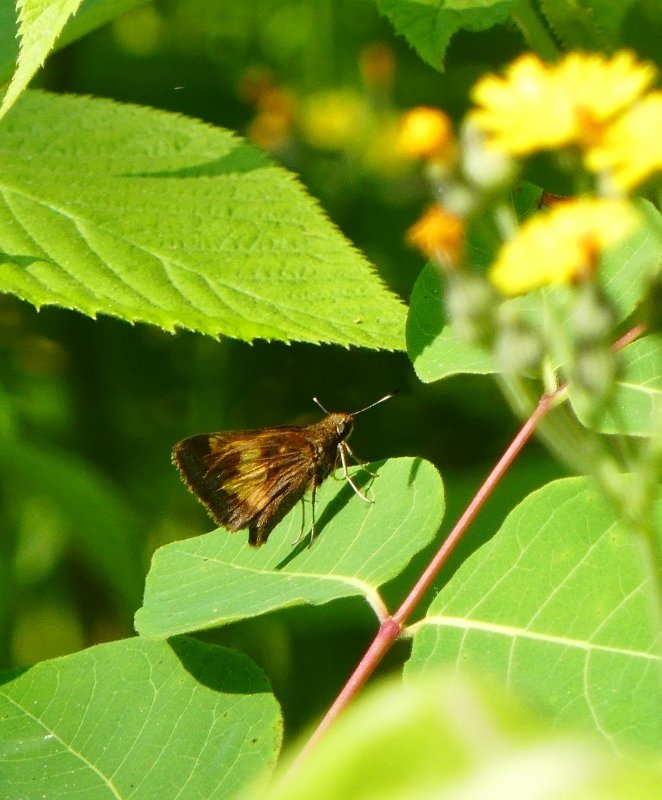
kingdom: Animalia
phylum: Arthropoda
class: Insecta
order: Lepidoptera
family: Hesperiidae
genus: Lon
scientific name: Lon hobomok
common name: Hobomok Skipper
